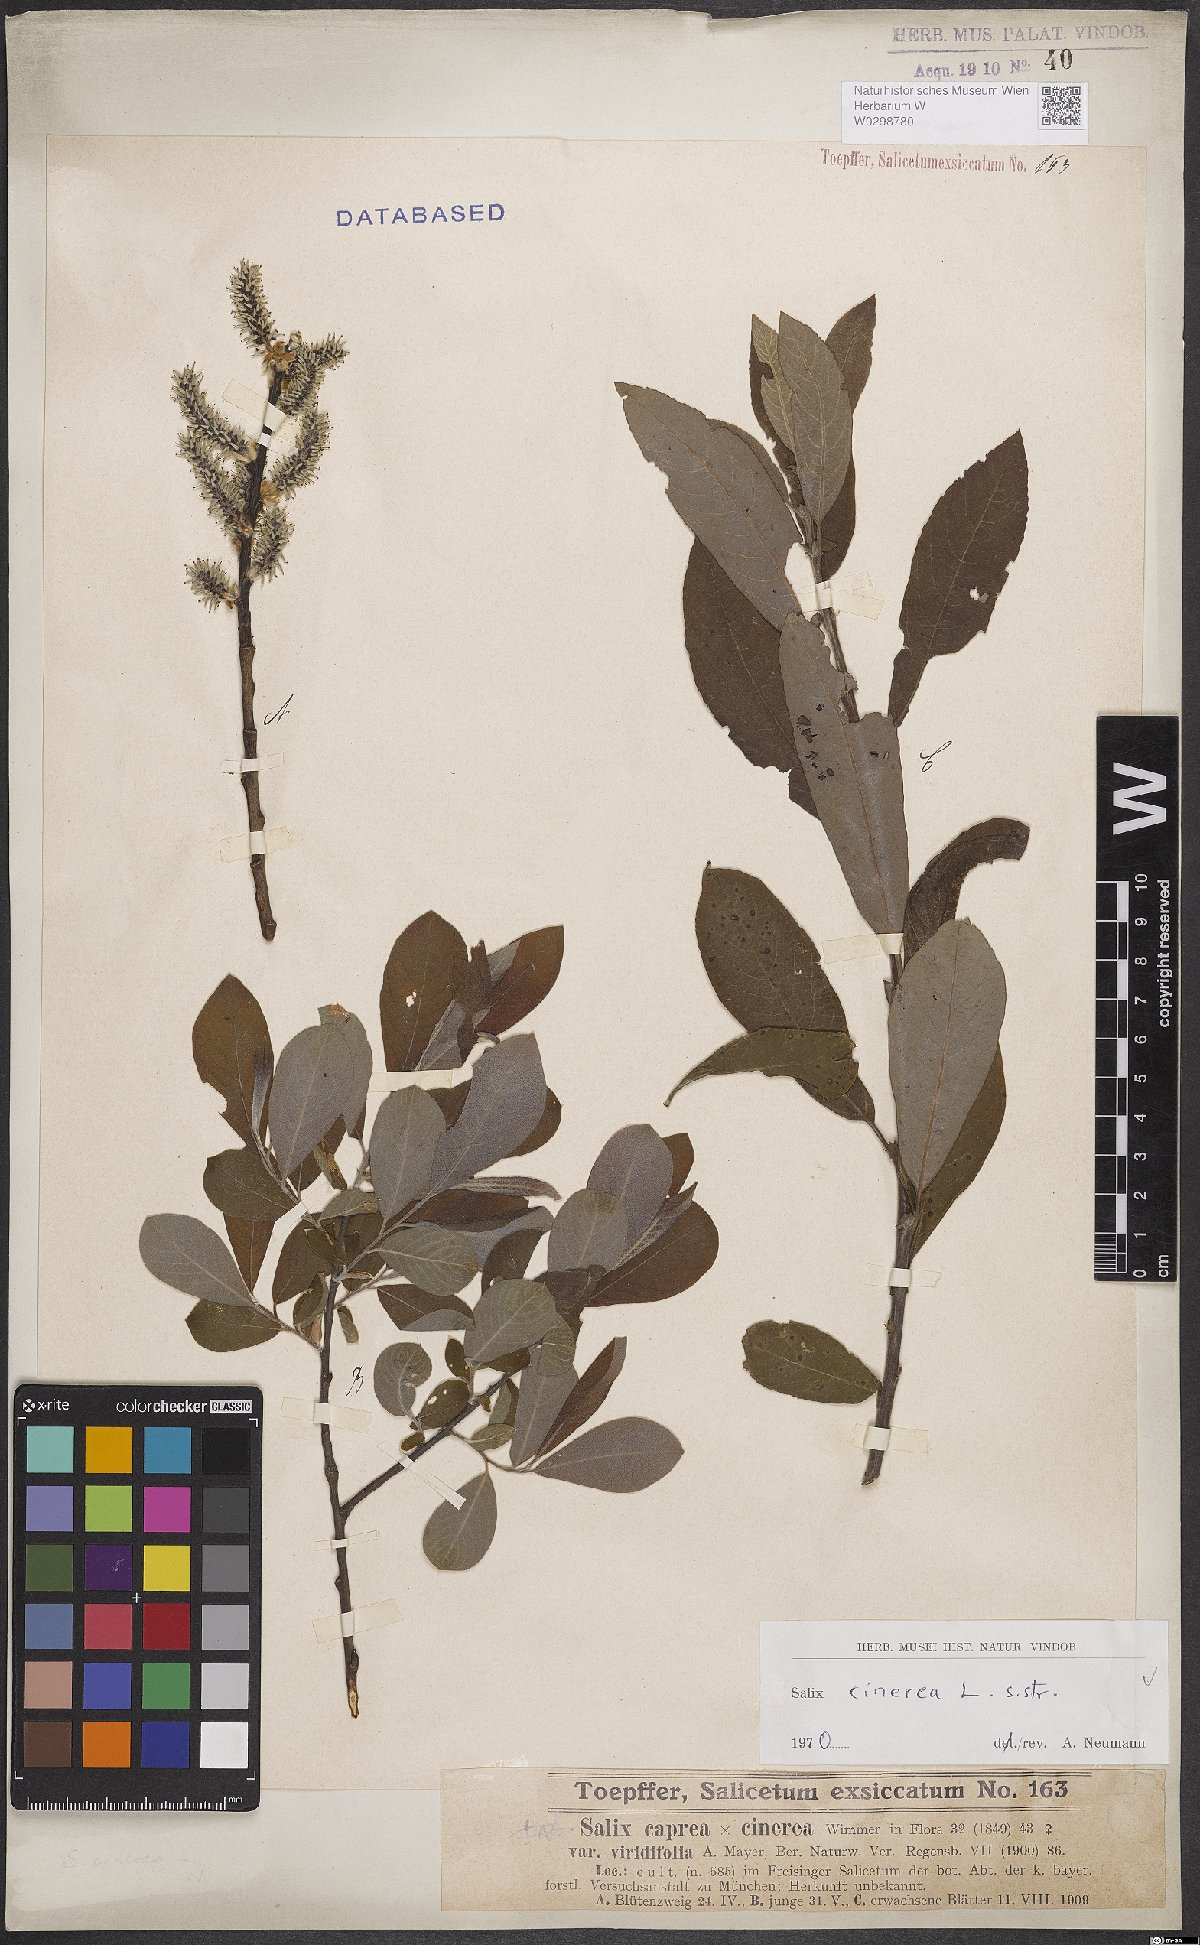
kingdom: Plantae
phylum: Tracheophyta
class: Magnoliopsida
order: Malpighiales
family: Salicaceae
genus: Salix
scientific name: Salix cinerea
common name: Common sallow
